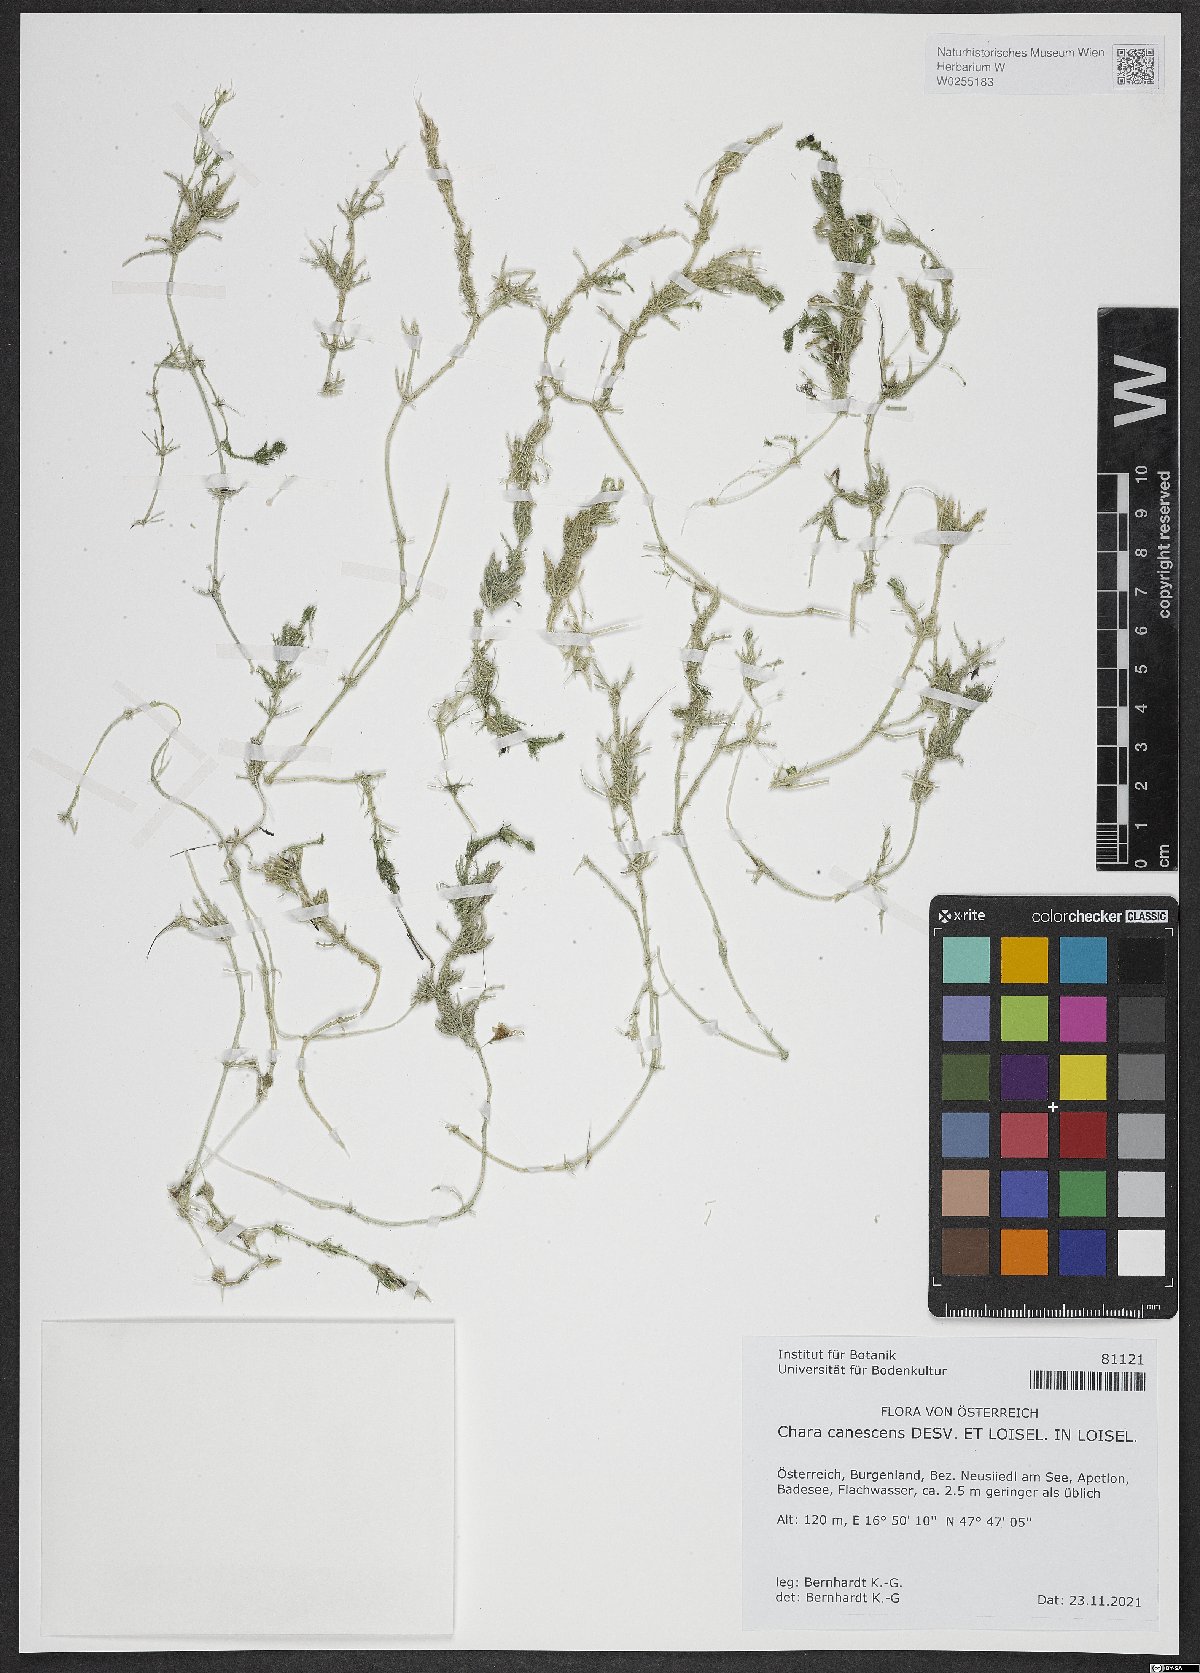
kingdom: Plantae
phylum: Charophyta
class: Charophyceae
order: Charales
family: Characeae
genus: Chara
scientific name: Chara canescens
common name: Bearded stonewort
